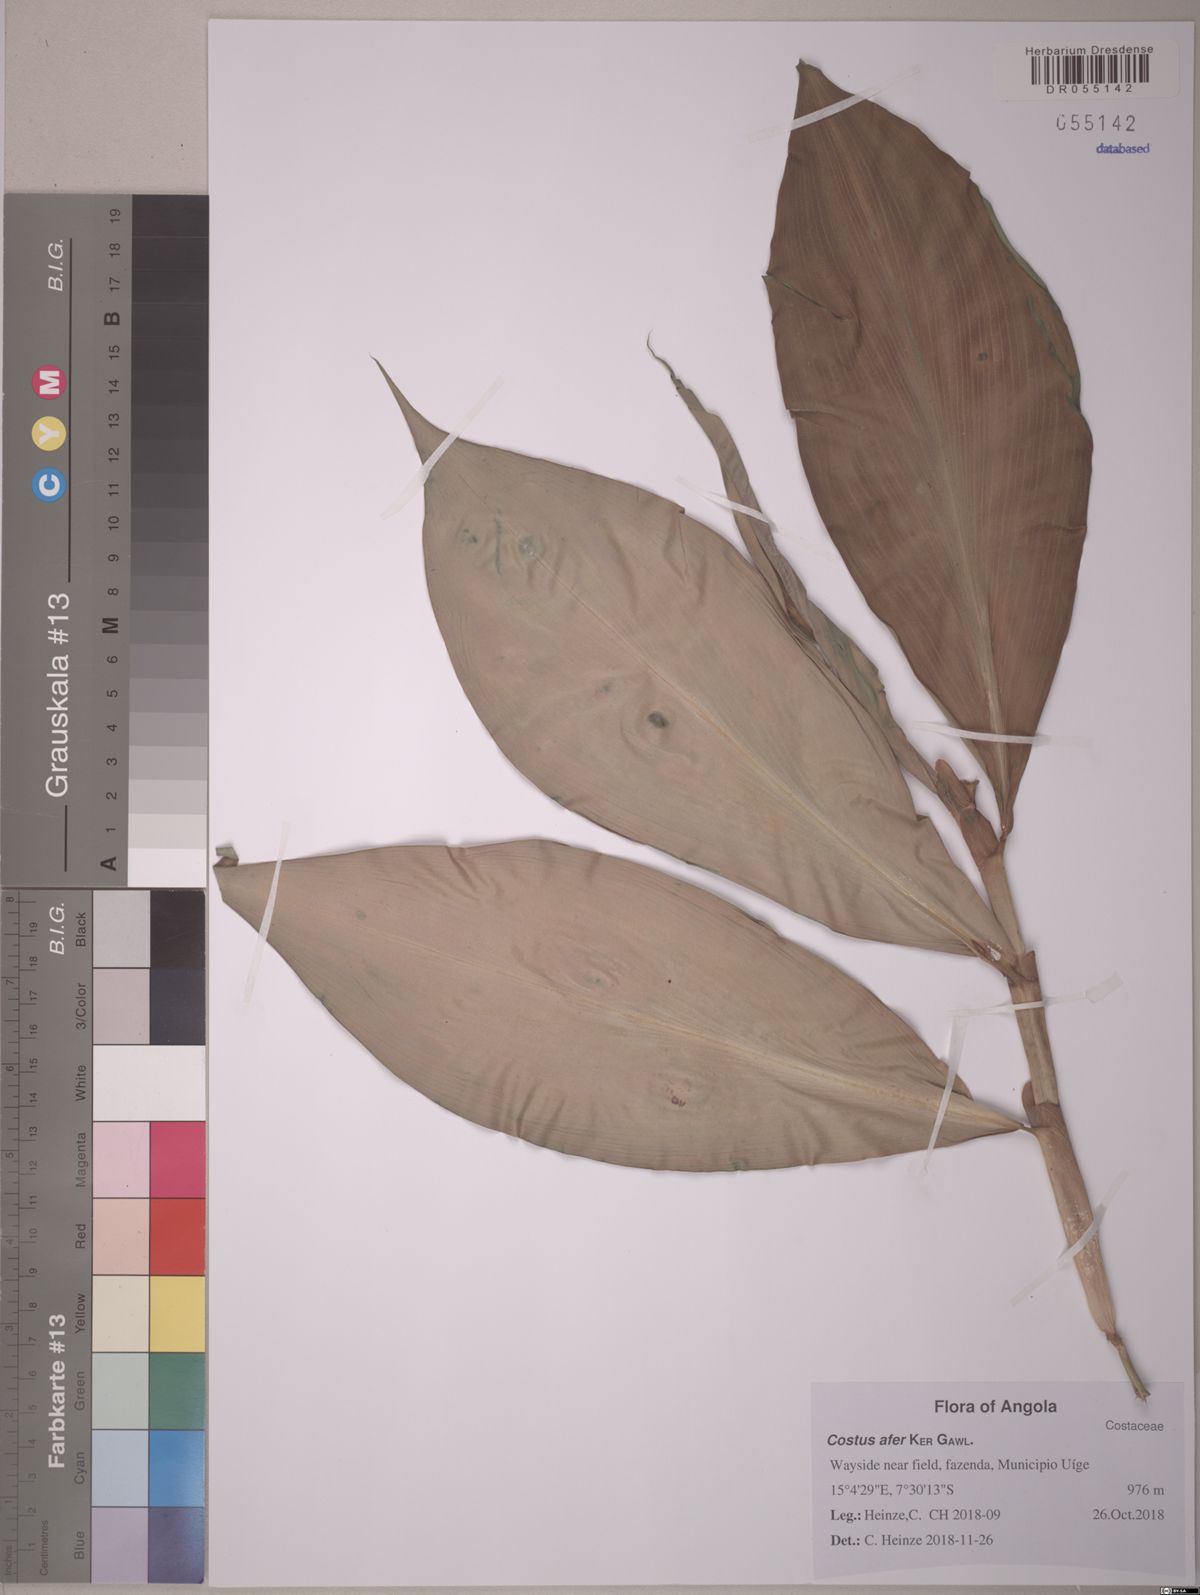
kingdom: Plantae
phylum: Tracheophyta
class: Liliopsida
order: Zingiberales
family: Costaceae
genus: Costus
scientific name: Costus afer
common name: Spiral-ginger
